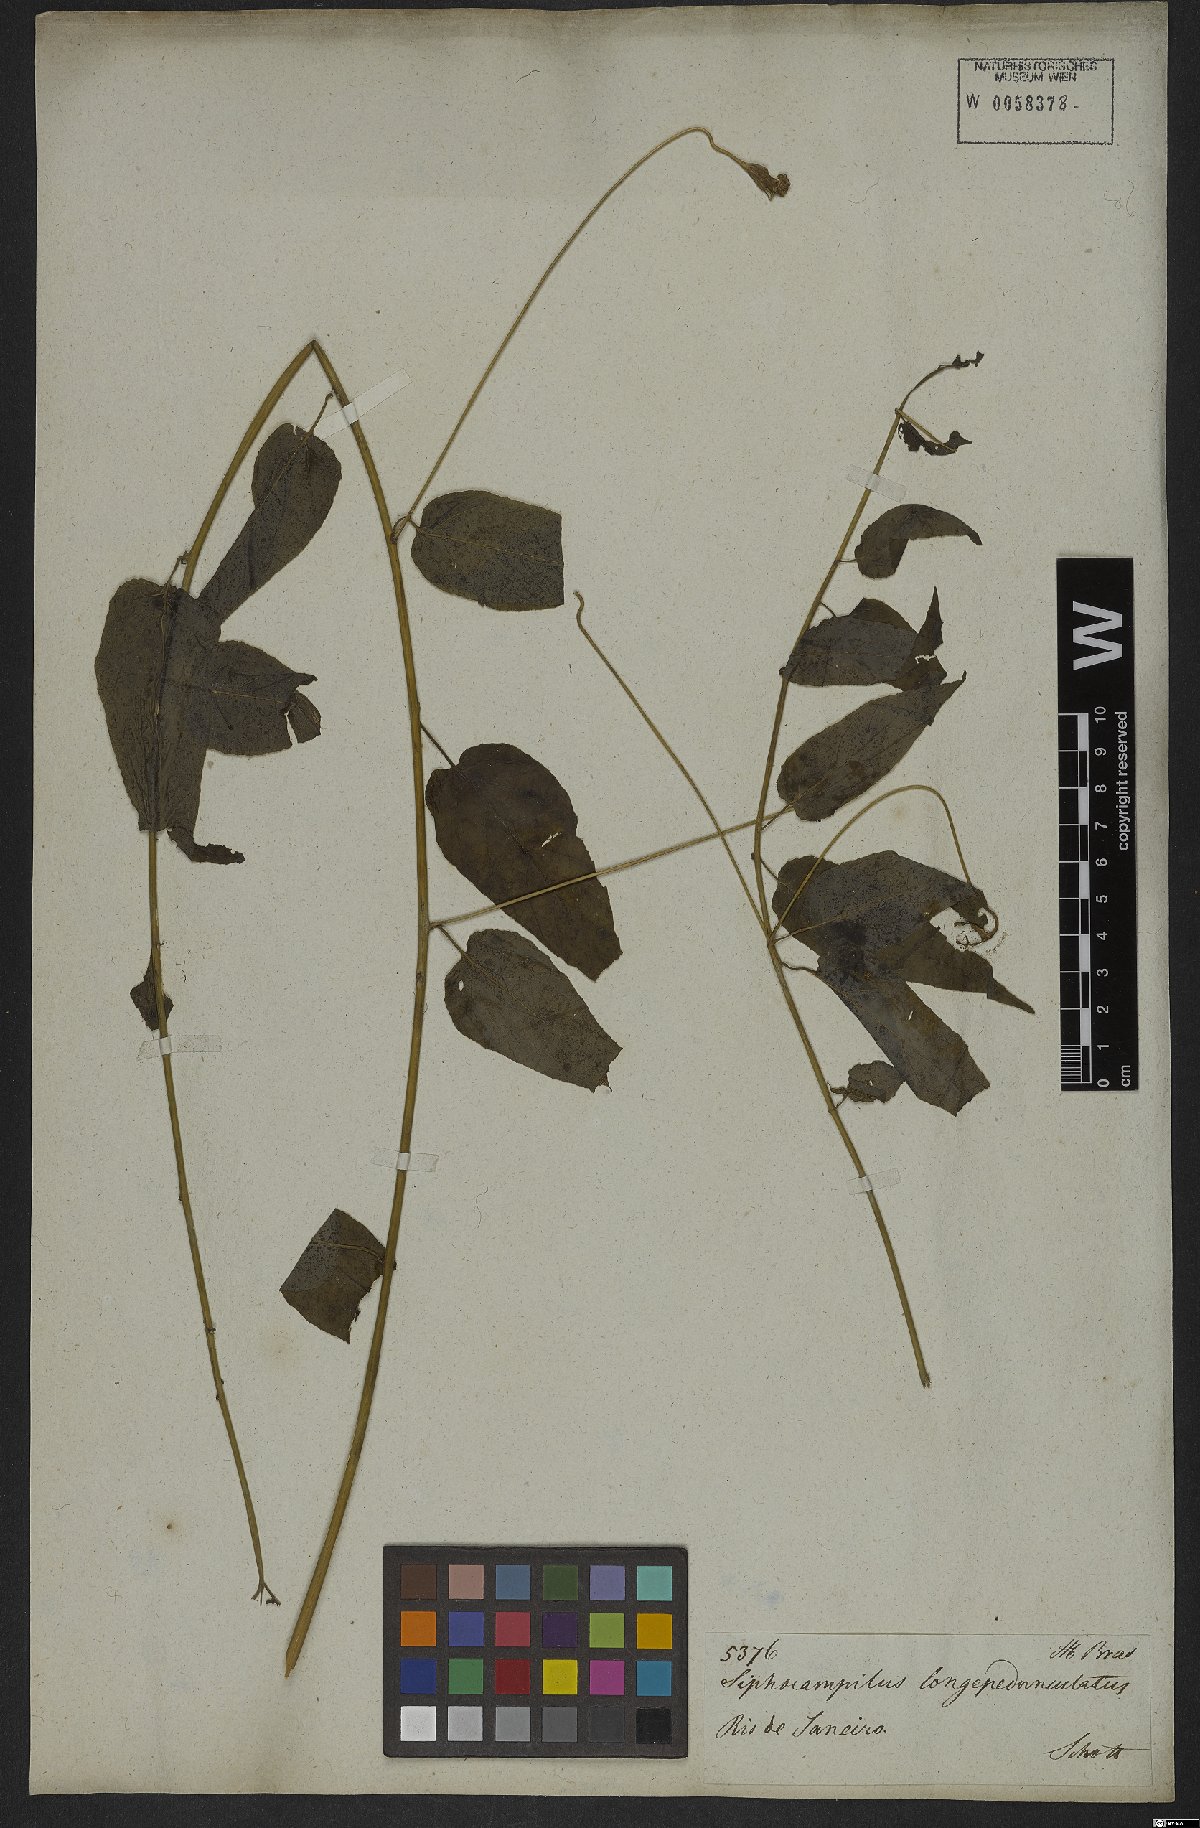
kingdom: Plantae
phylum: Tracheophyta
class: Magnoliopsida
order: Asterales
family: Campanulaceae
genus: Siphocampylus
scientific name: Siphocampylus longipedunculatus
